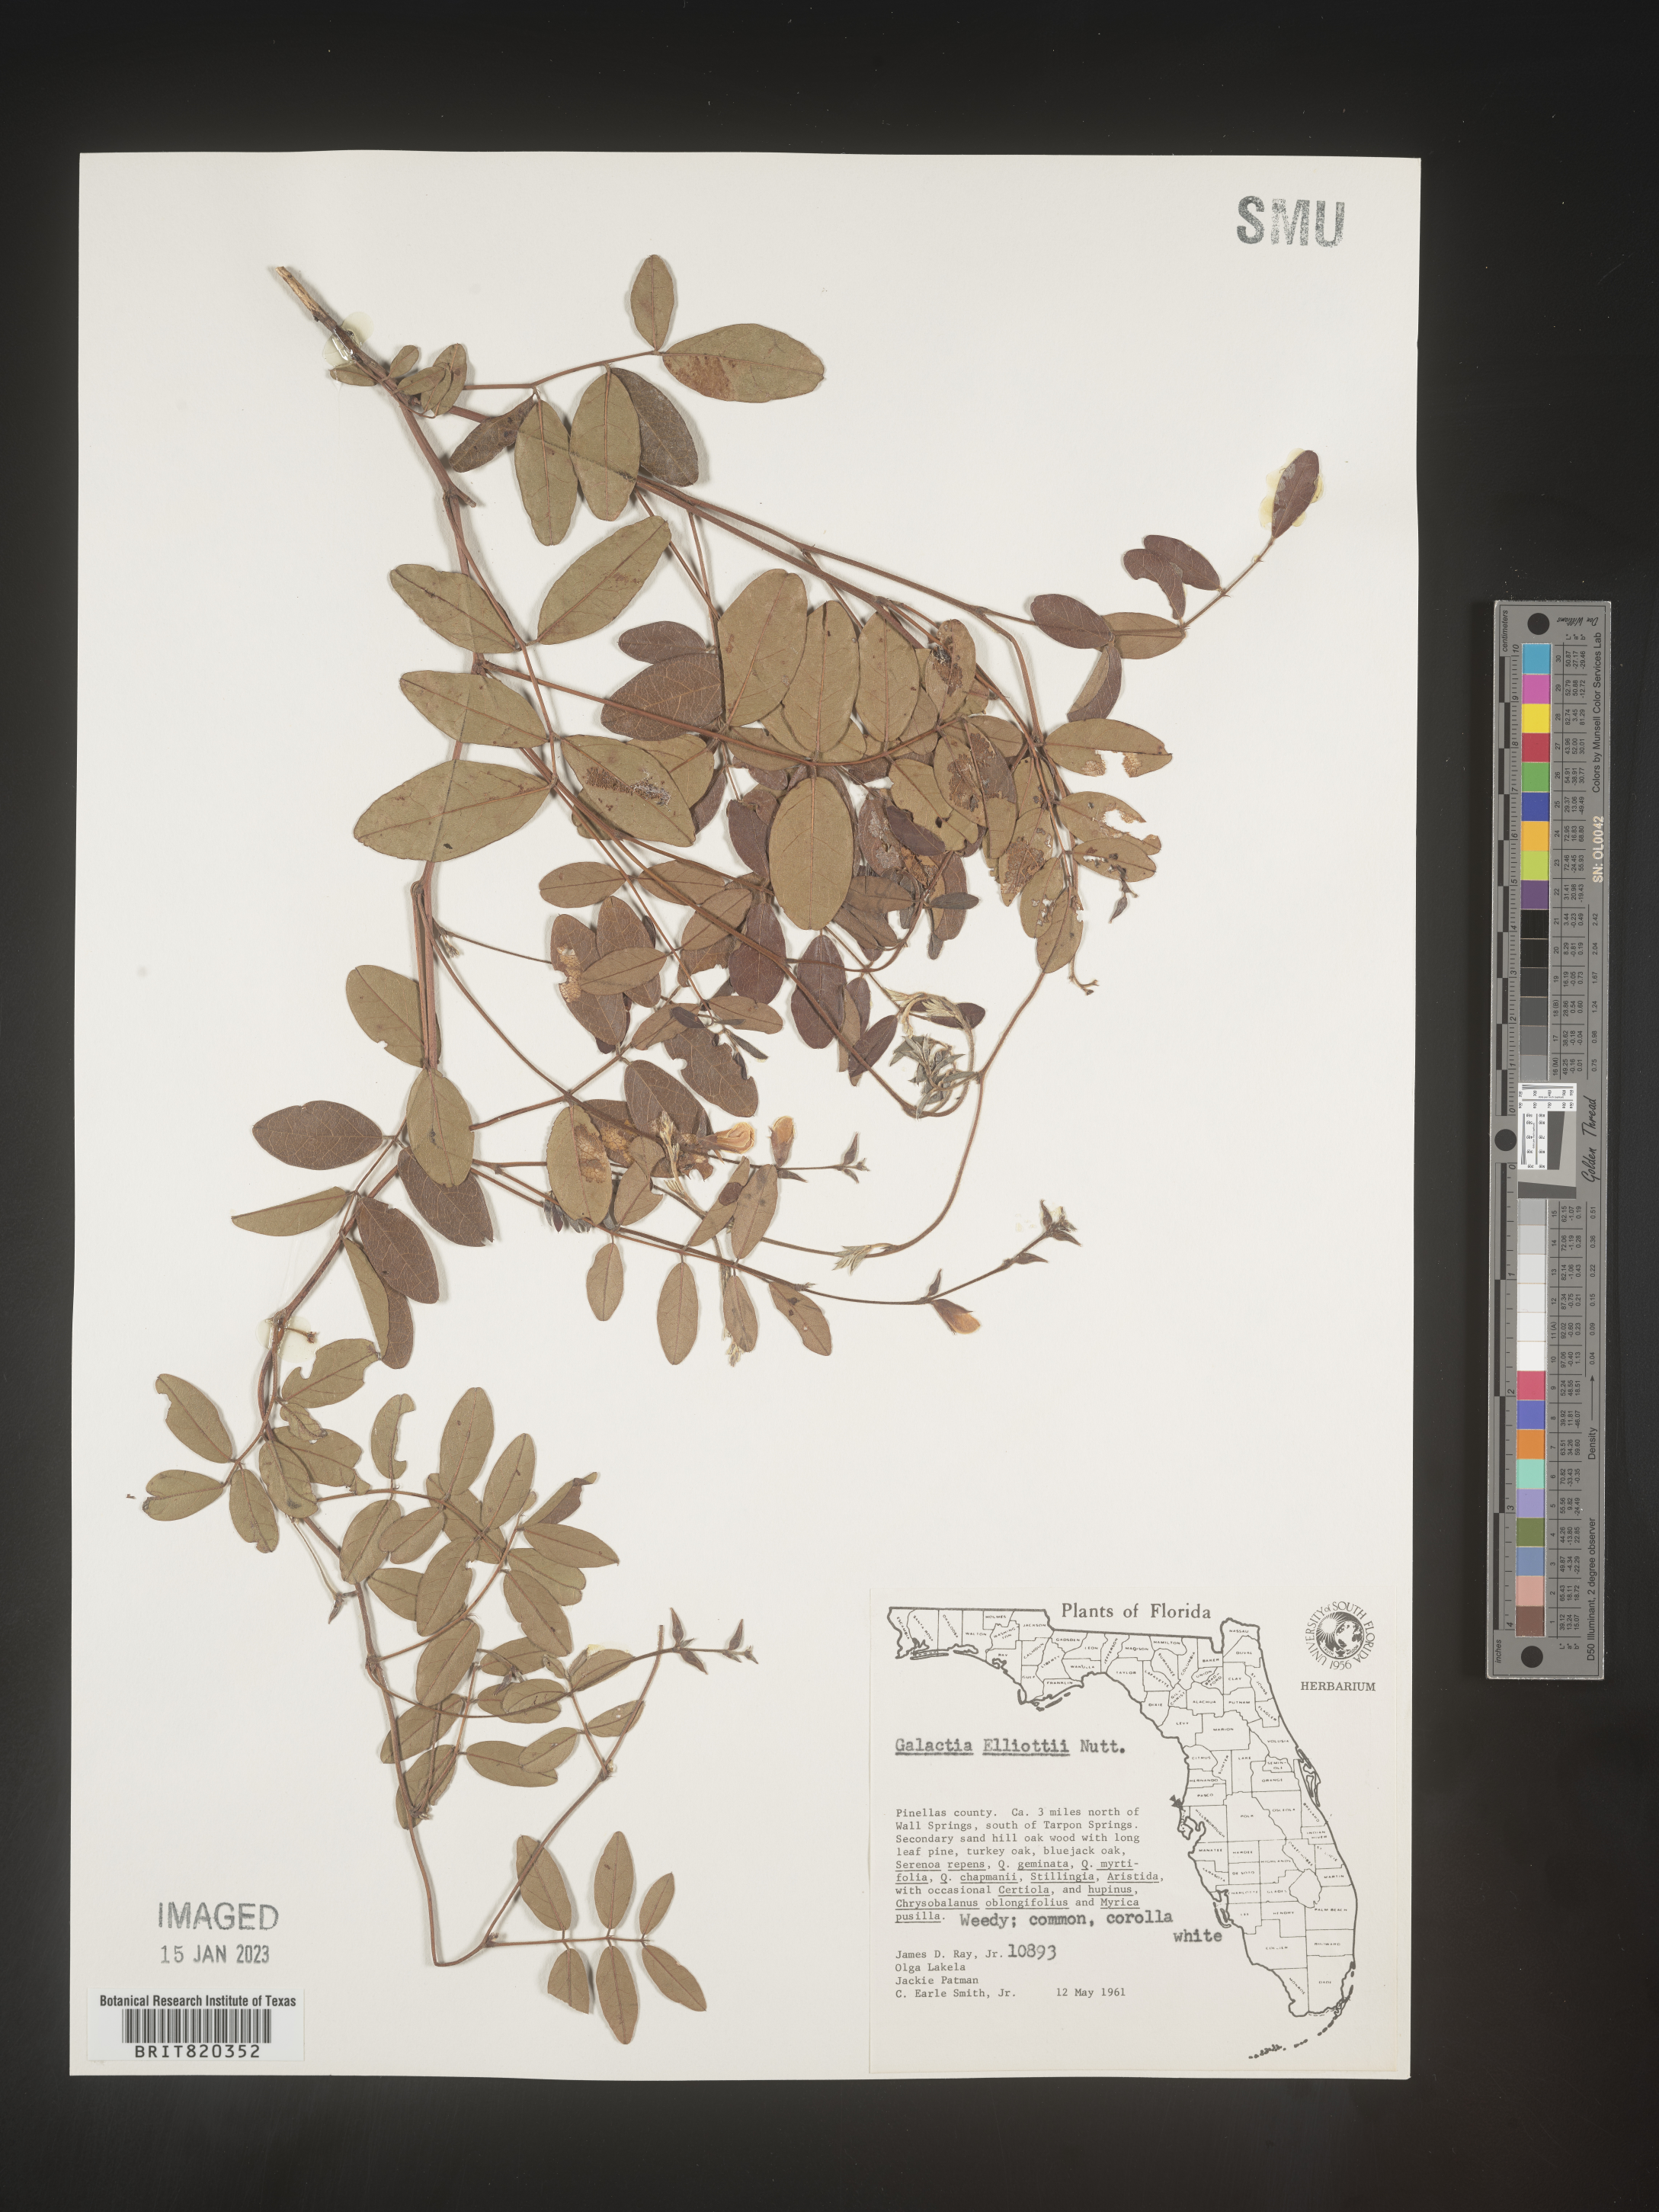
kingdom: Plantae
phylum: Tracheophyta
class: Magnoliopsida
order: Fabales
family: Fabaceae
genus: Galactia
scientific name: Galactia elliottii
